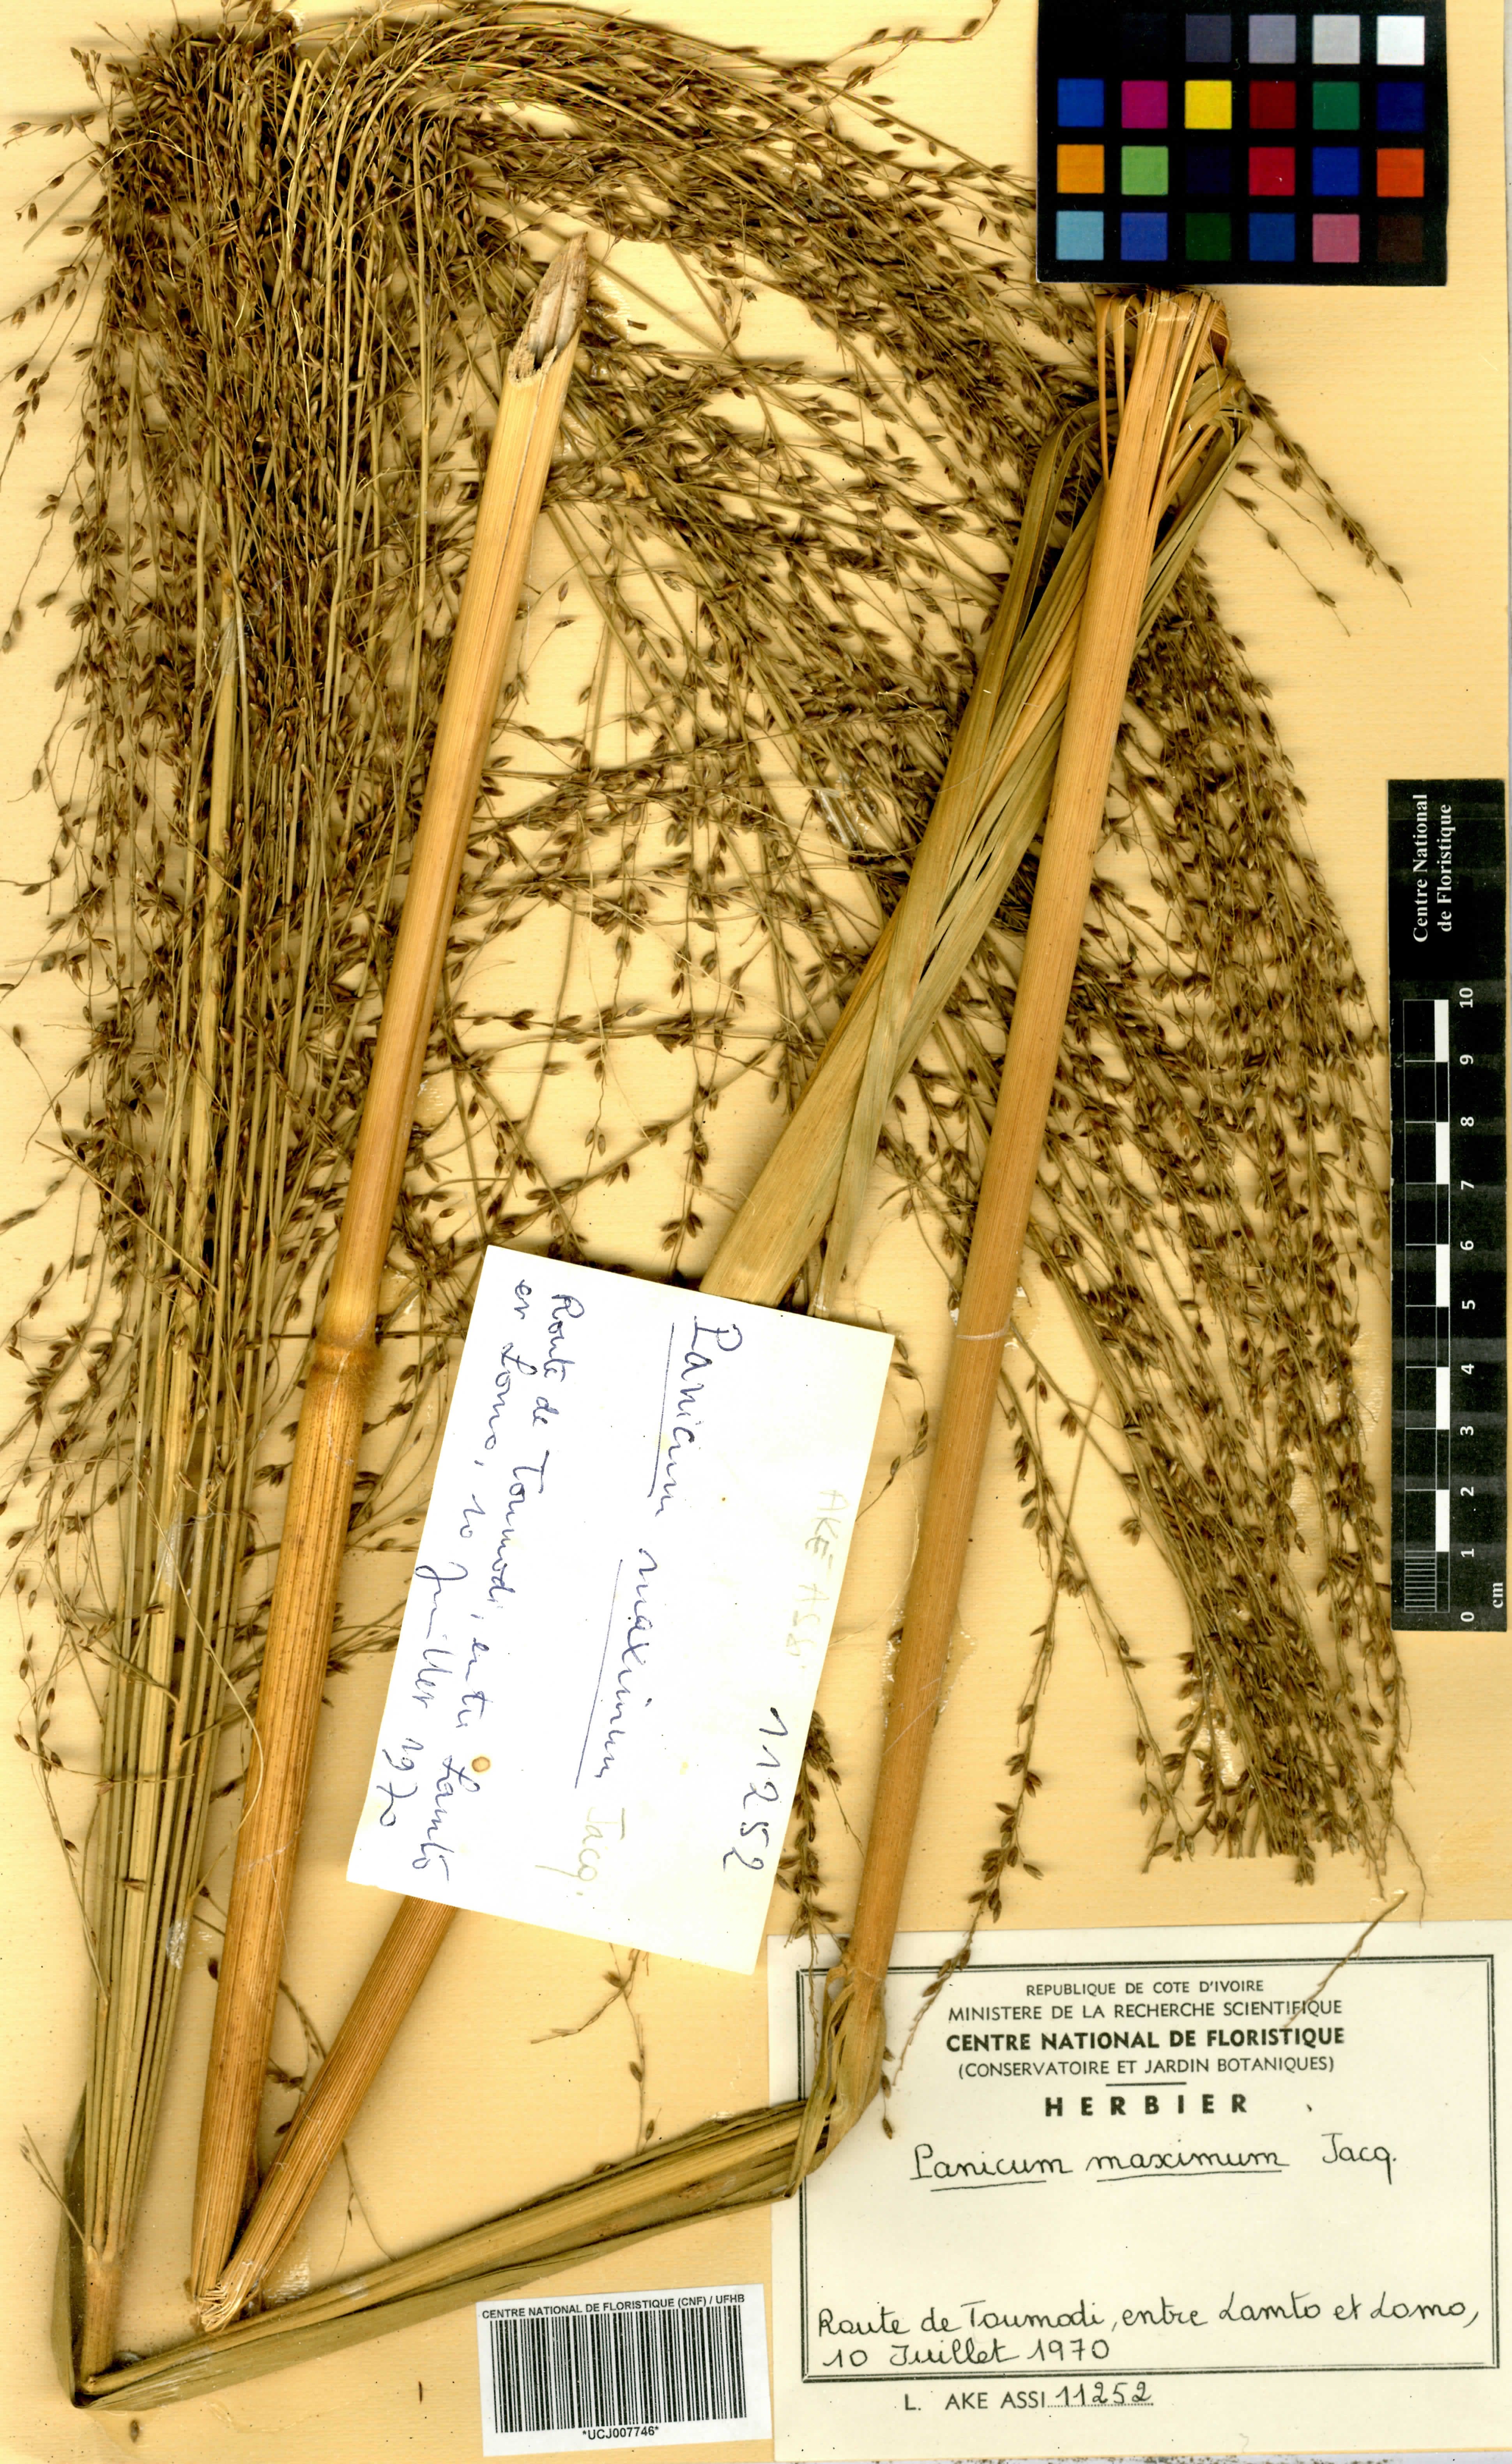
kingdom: Plantae
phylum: Tracheophyta
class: Liliopsida
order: Poales
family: Poaceae
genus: Megathyrsus
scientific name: Megathyrsus maximus
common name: Guineagrass
